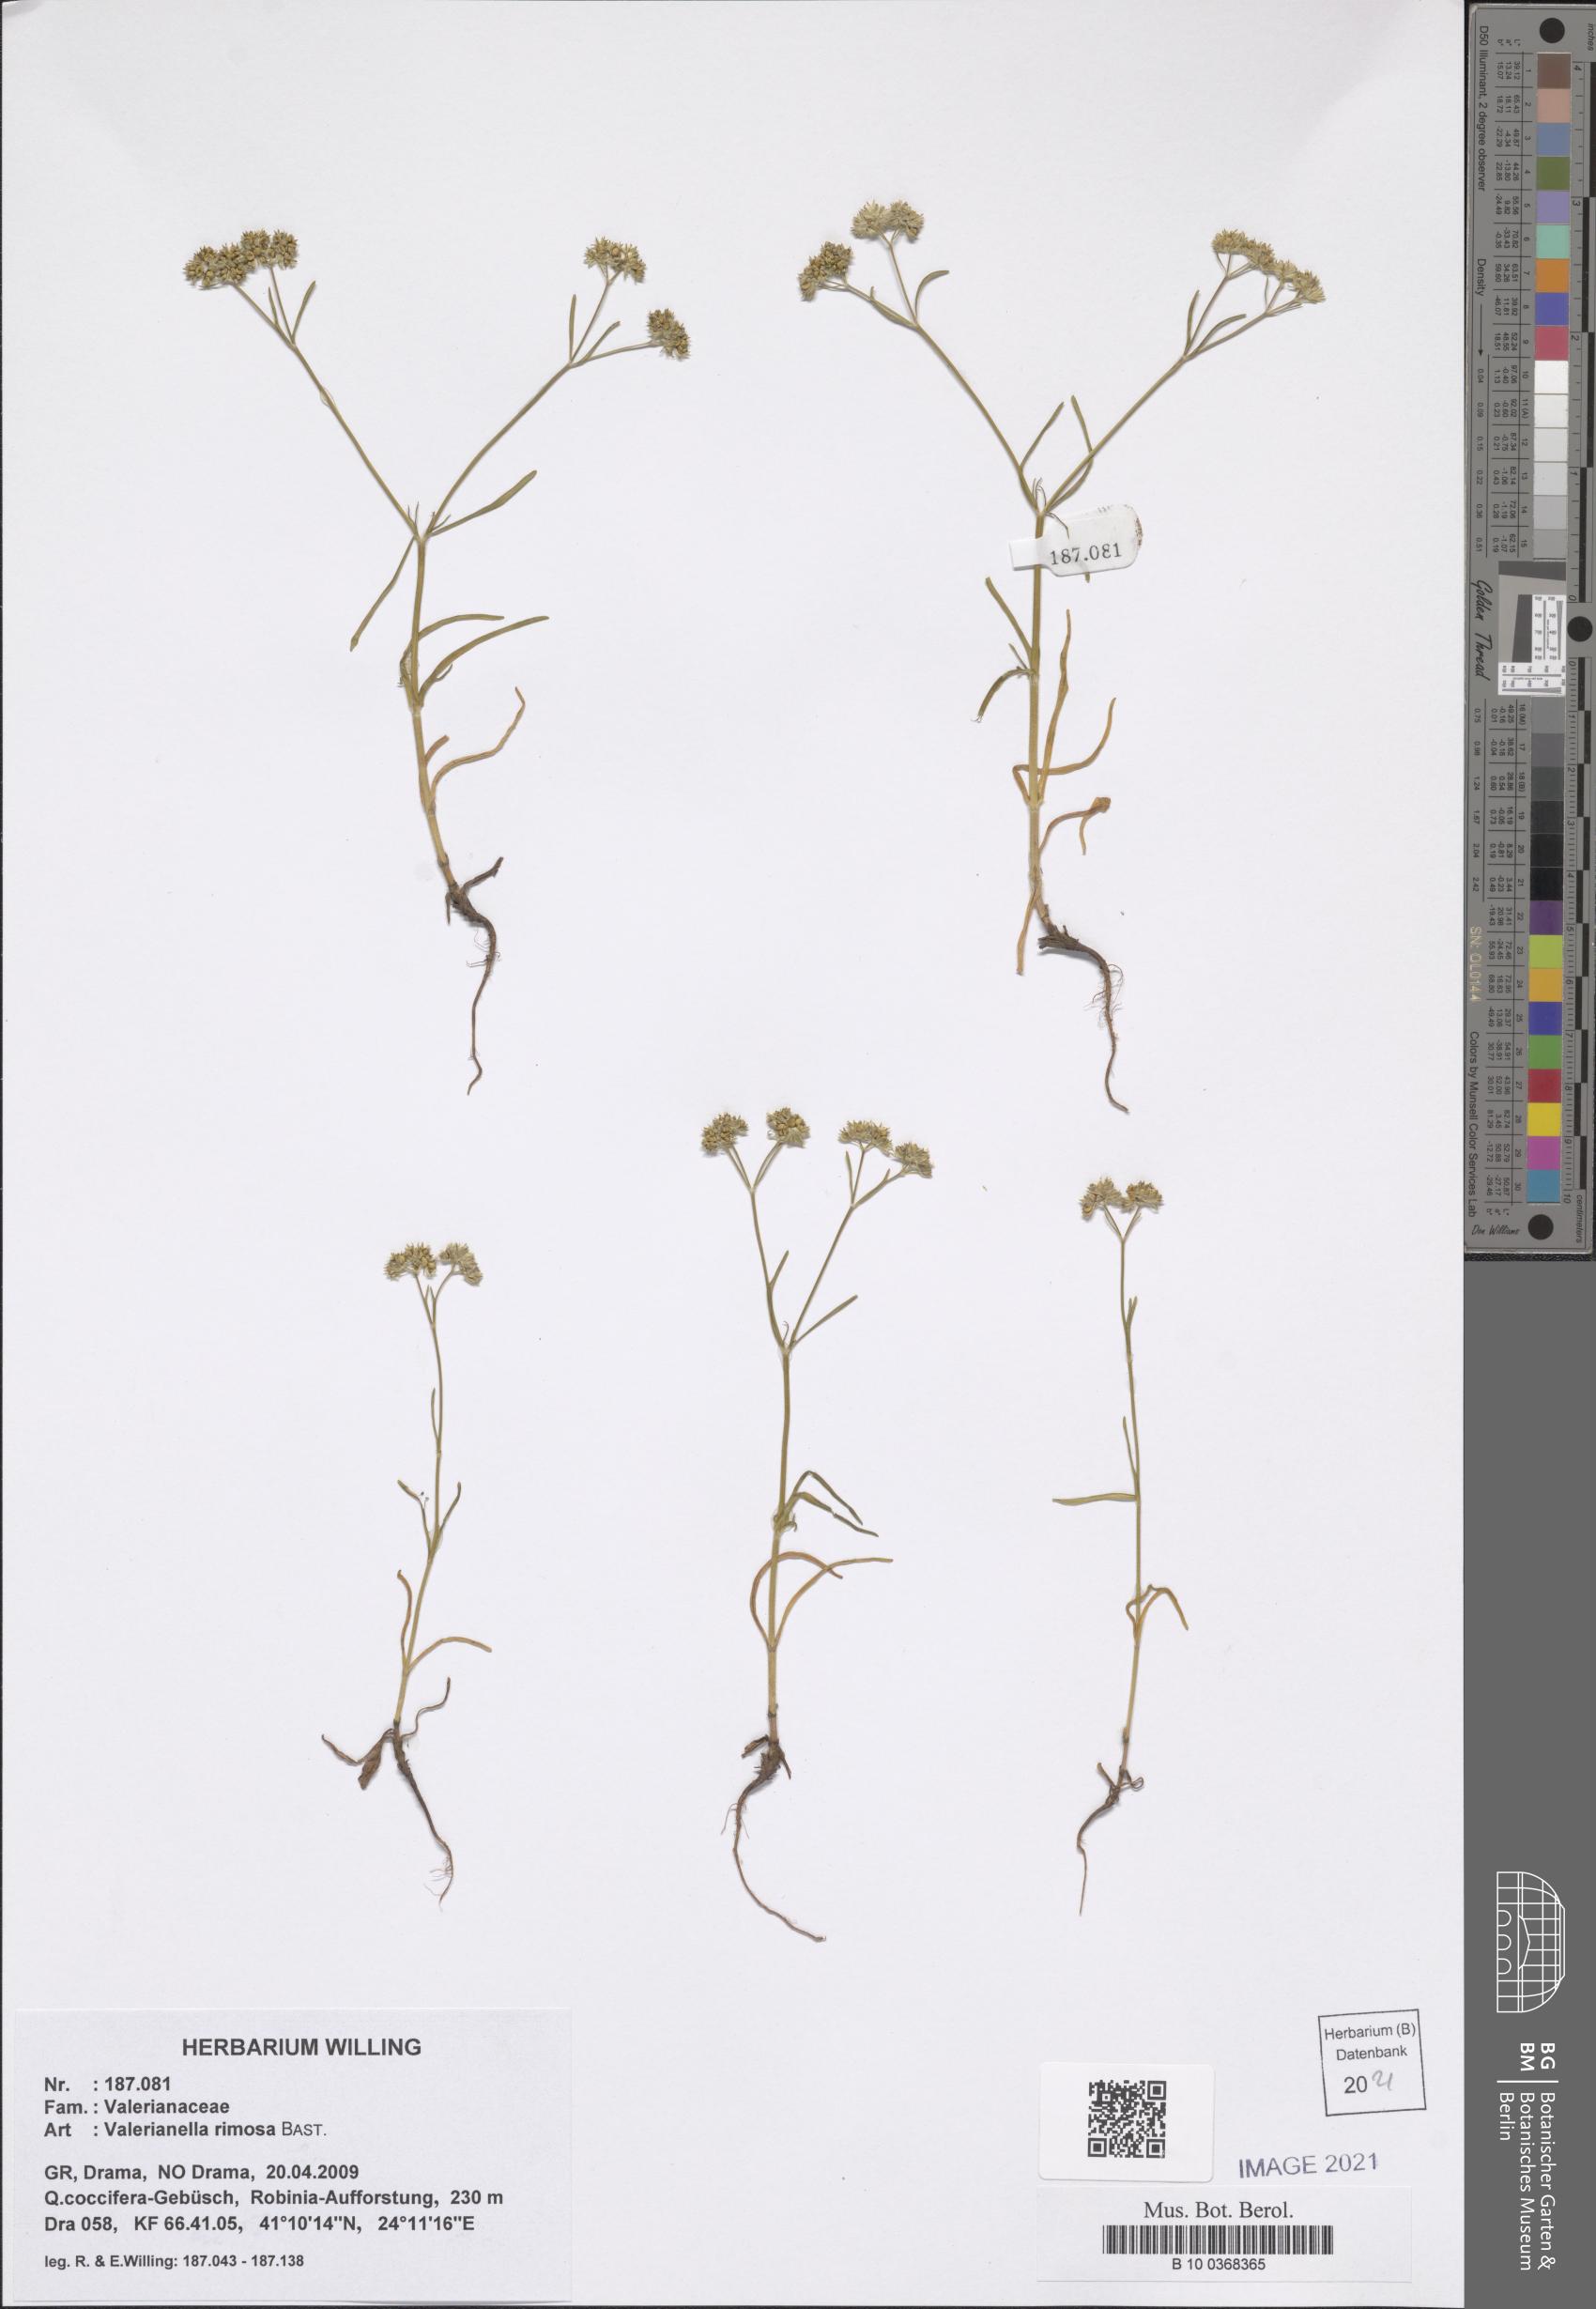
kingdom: Plantae
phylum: Tracheophyta
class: Magnoliopsida
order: Dipsacales
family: Caprifoliaceae
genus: Valerianella
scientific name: Valerianella rimosa
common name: Broad-fruited cornsalad
